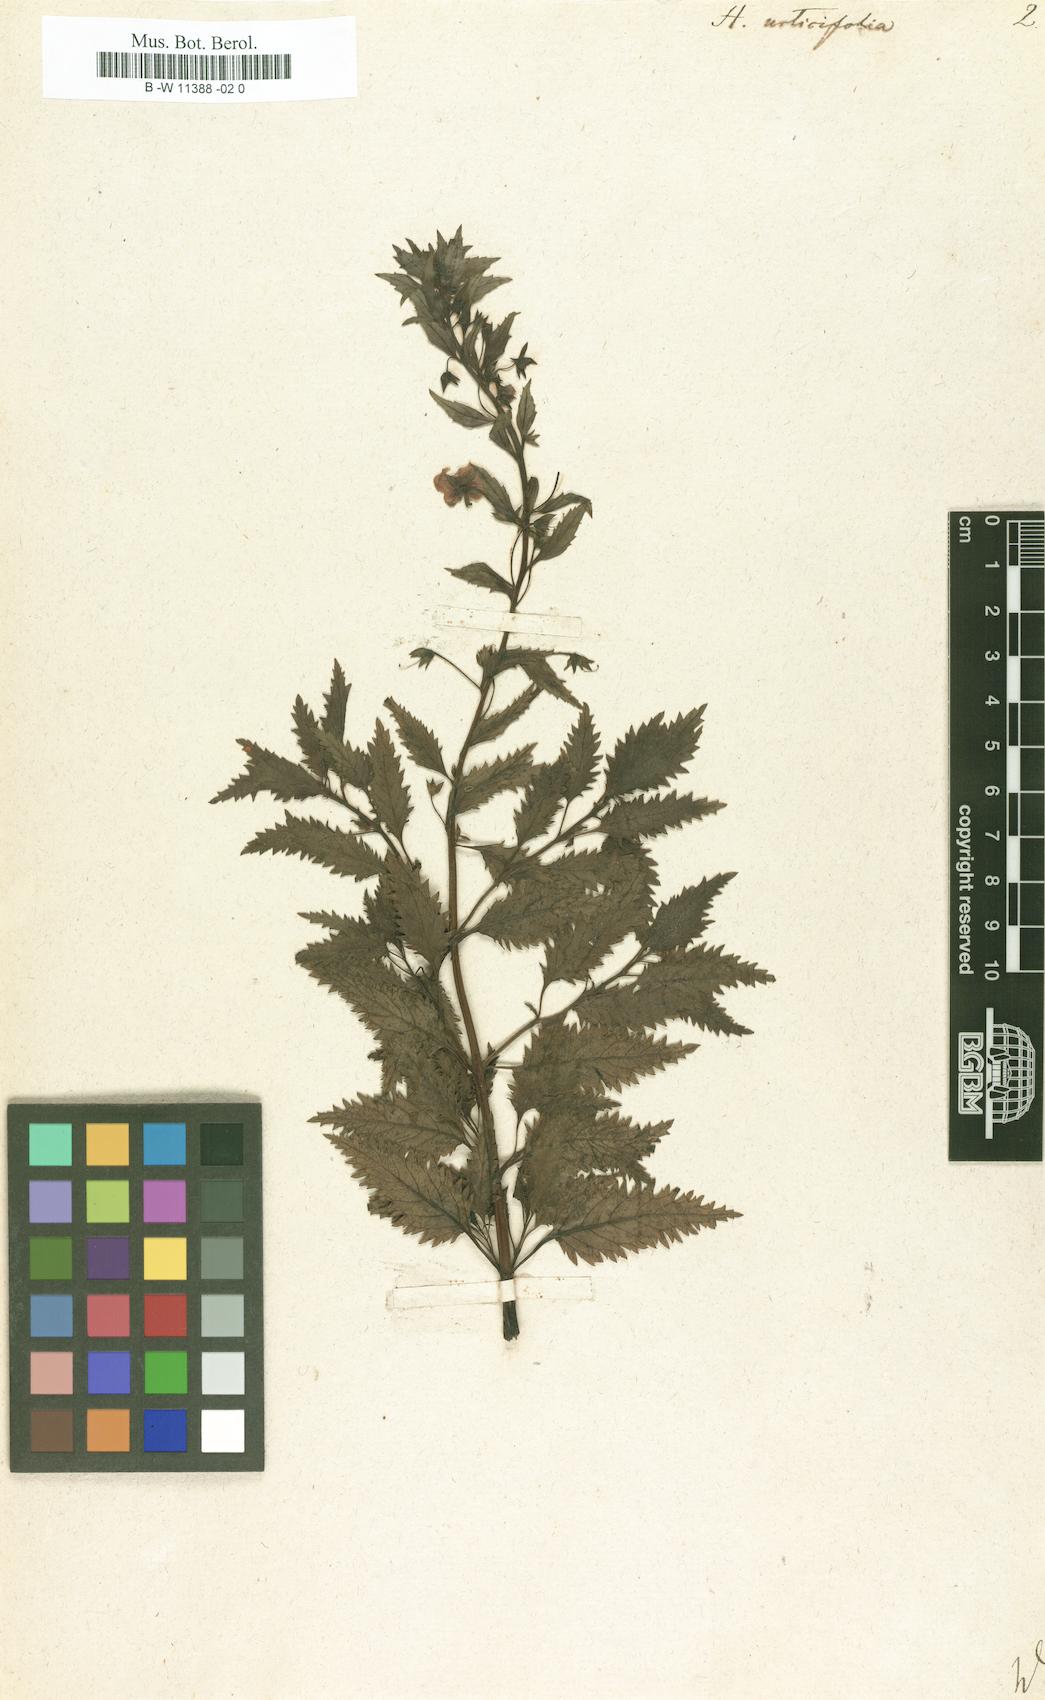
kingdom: Plantae
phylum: Tracheophyta
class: Magnoliopsida
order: Lamiales
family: Scrophulariaceae
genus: Alonsoa
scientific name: Alonsoa meridionalis
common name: Maskflower
